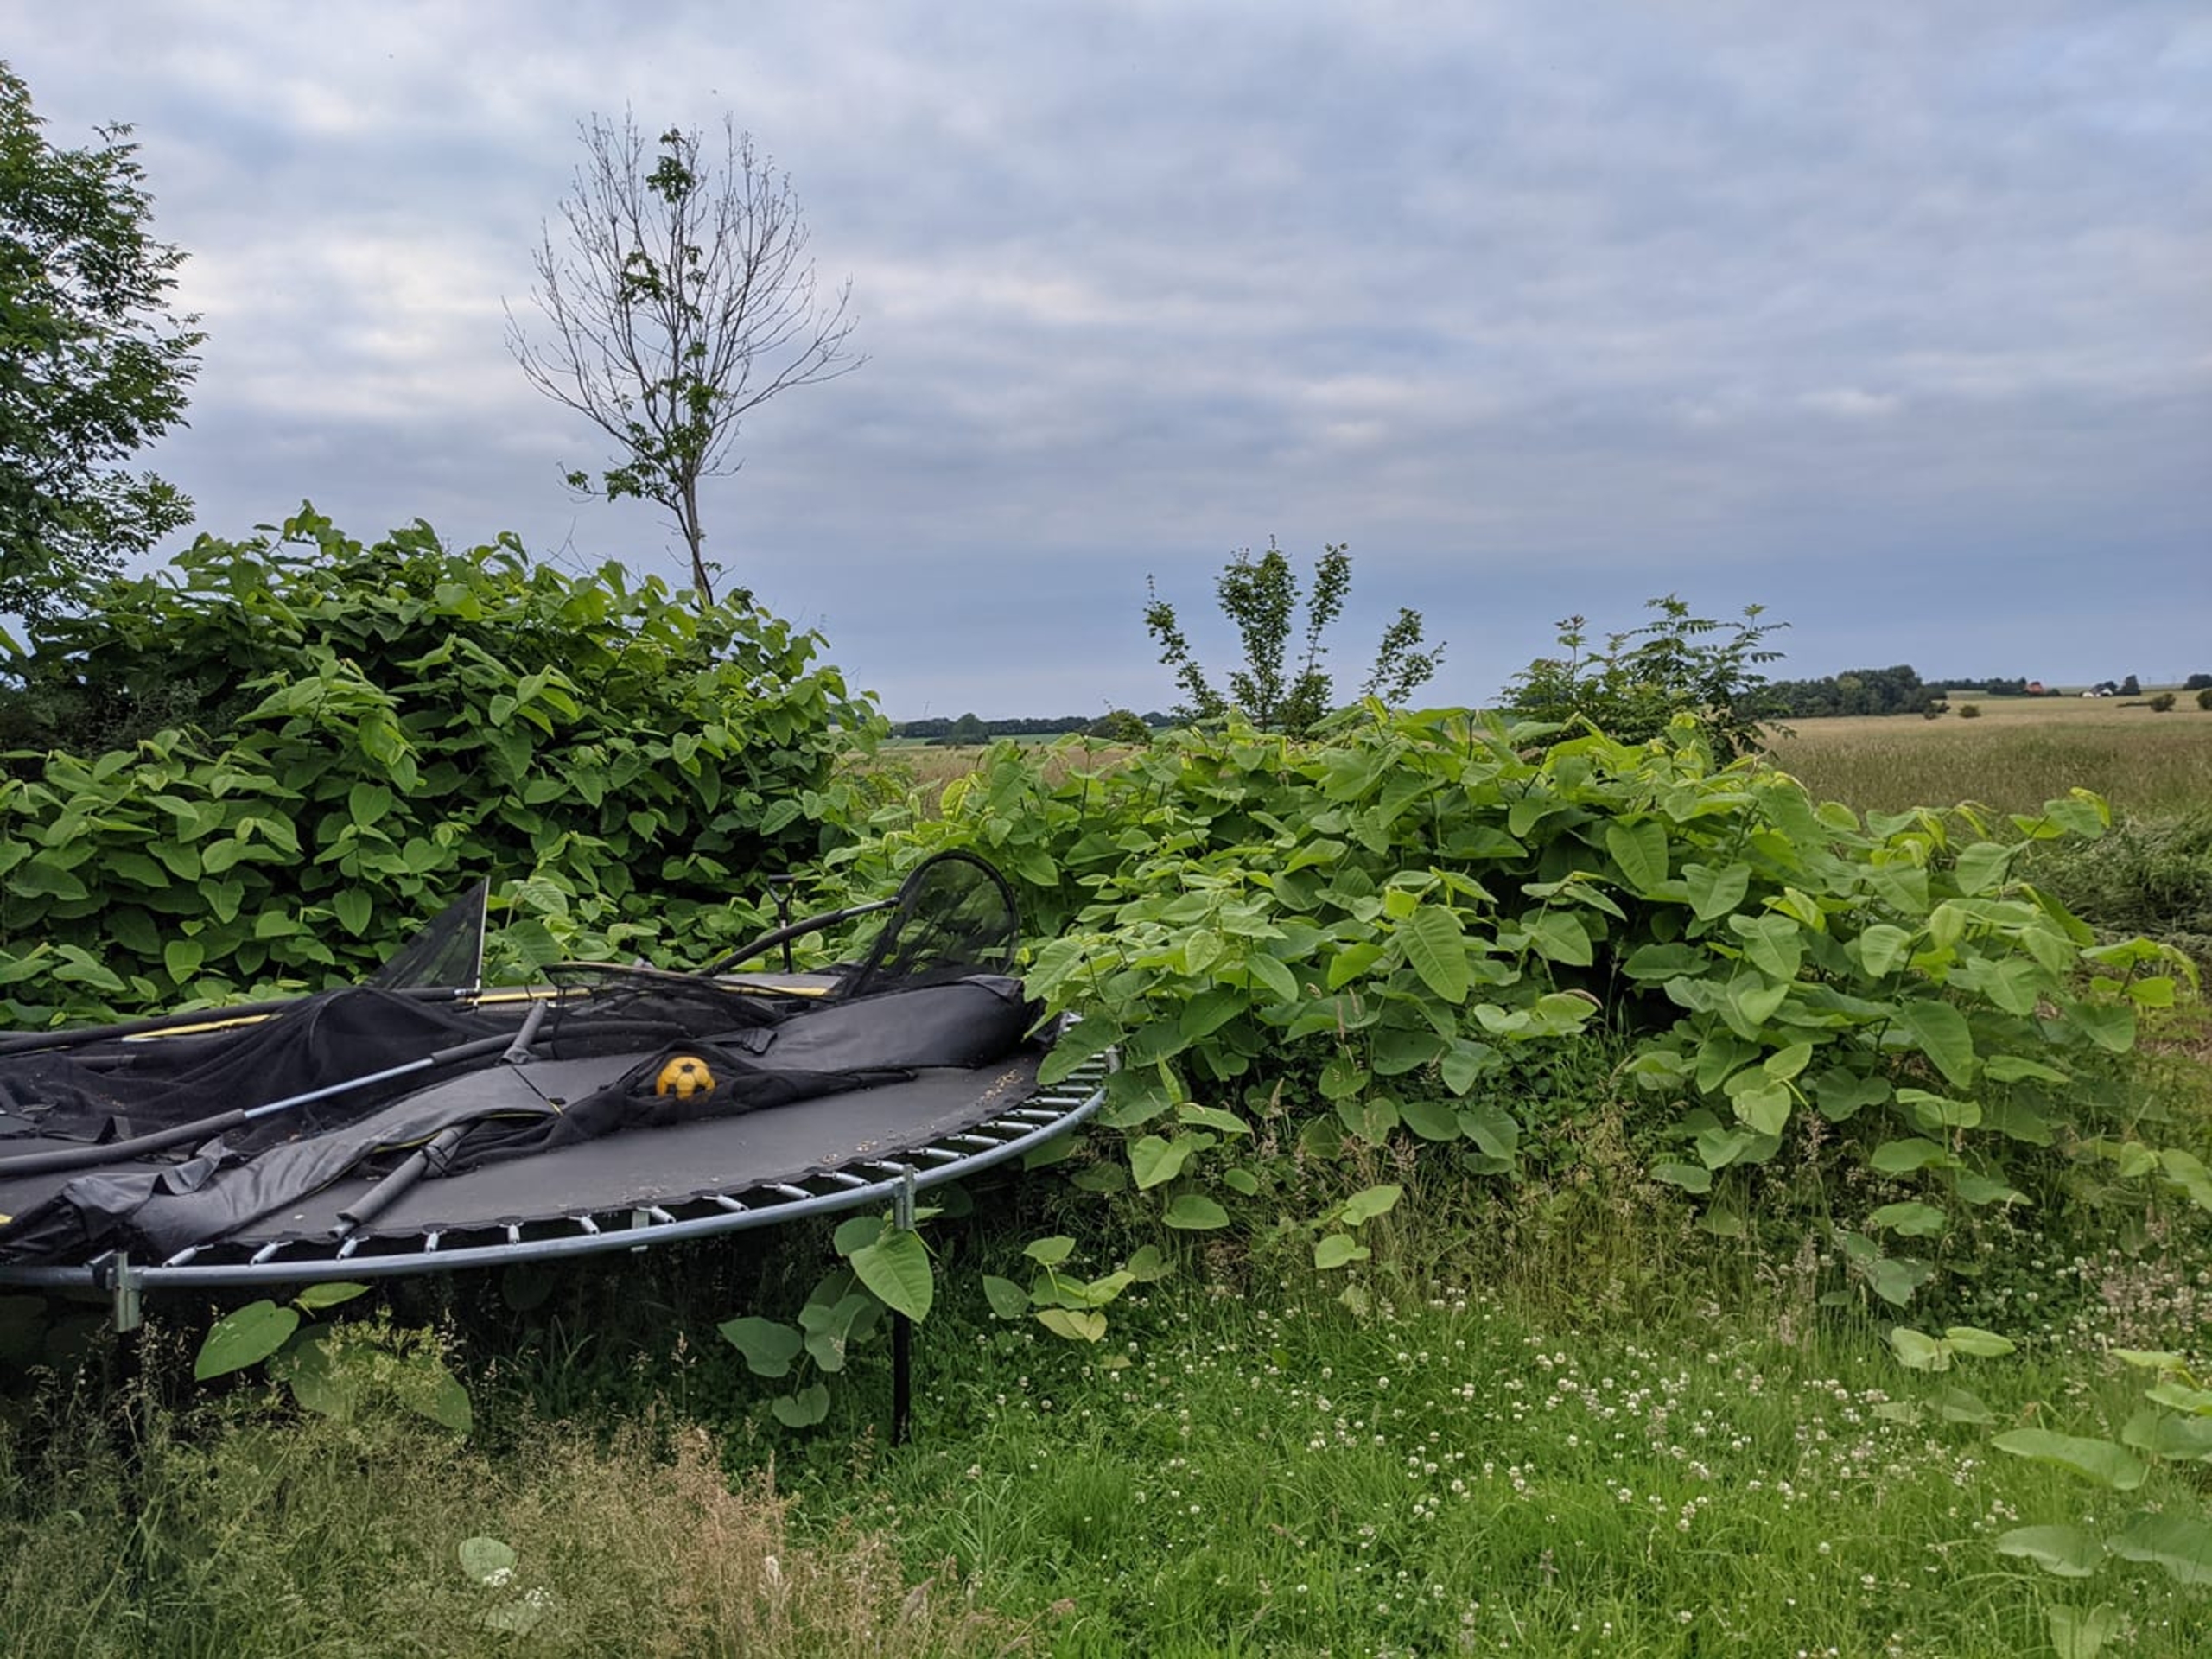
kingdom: Plantae
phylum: Tracheophyta
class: Magnoliopsida
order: Caryophyllales
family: Polygonaceae
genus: Reynoutria
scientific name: Reynoutria sachalinensis
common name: Kæmpe-pileurt
